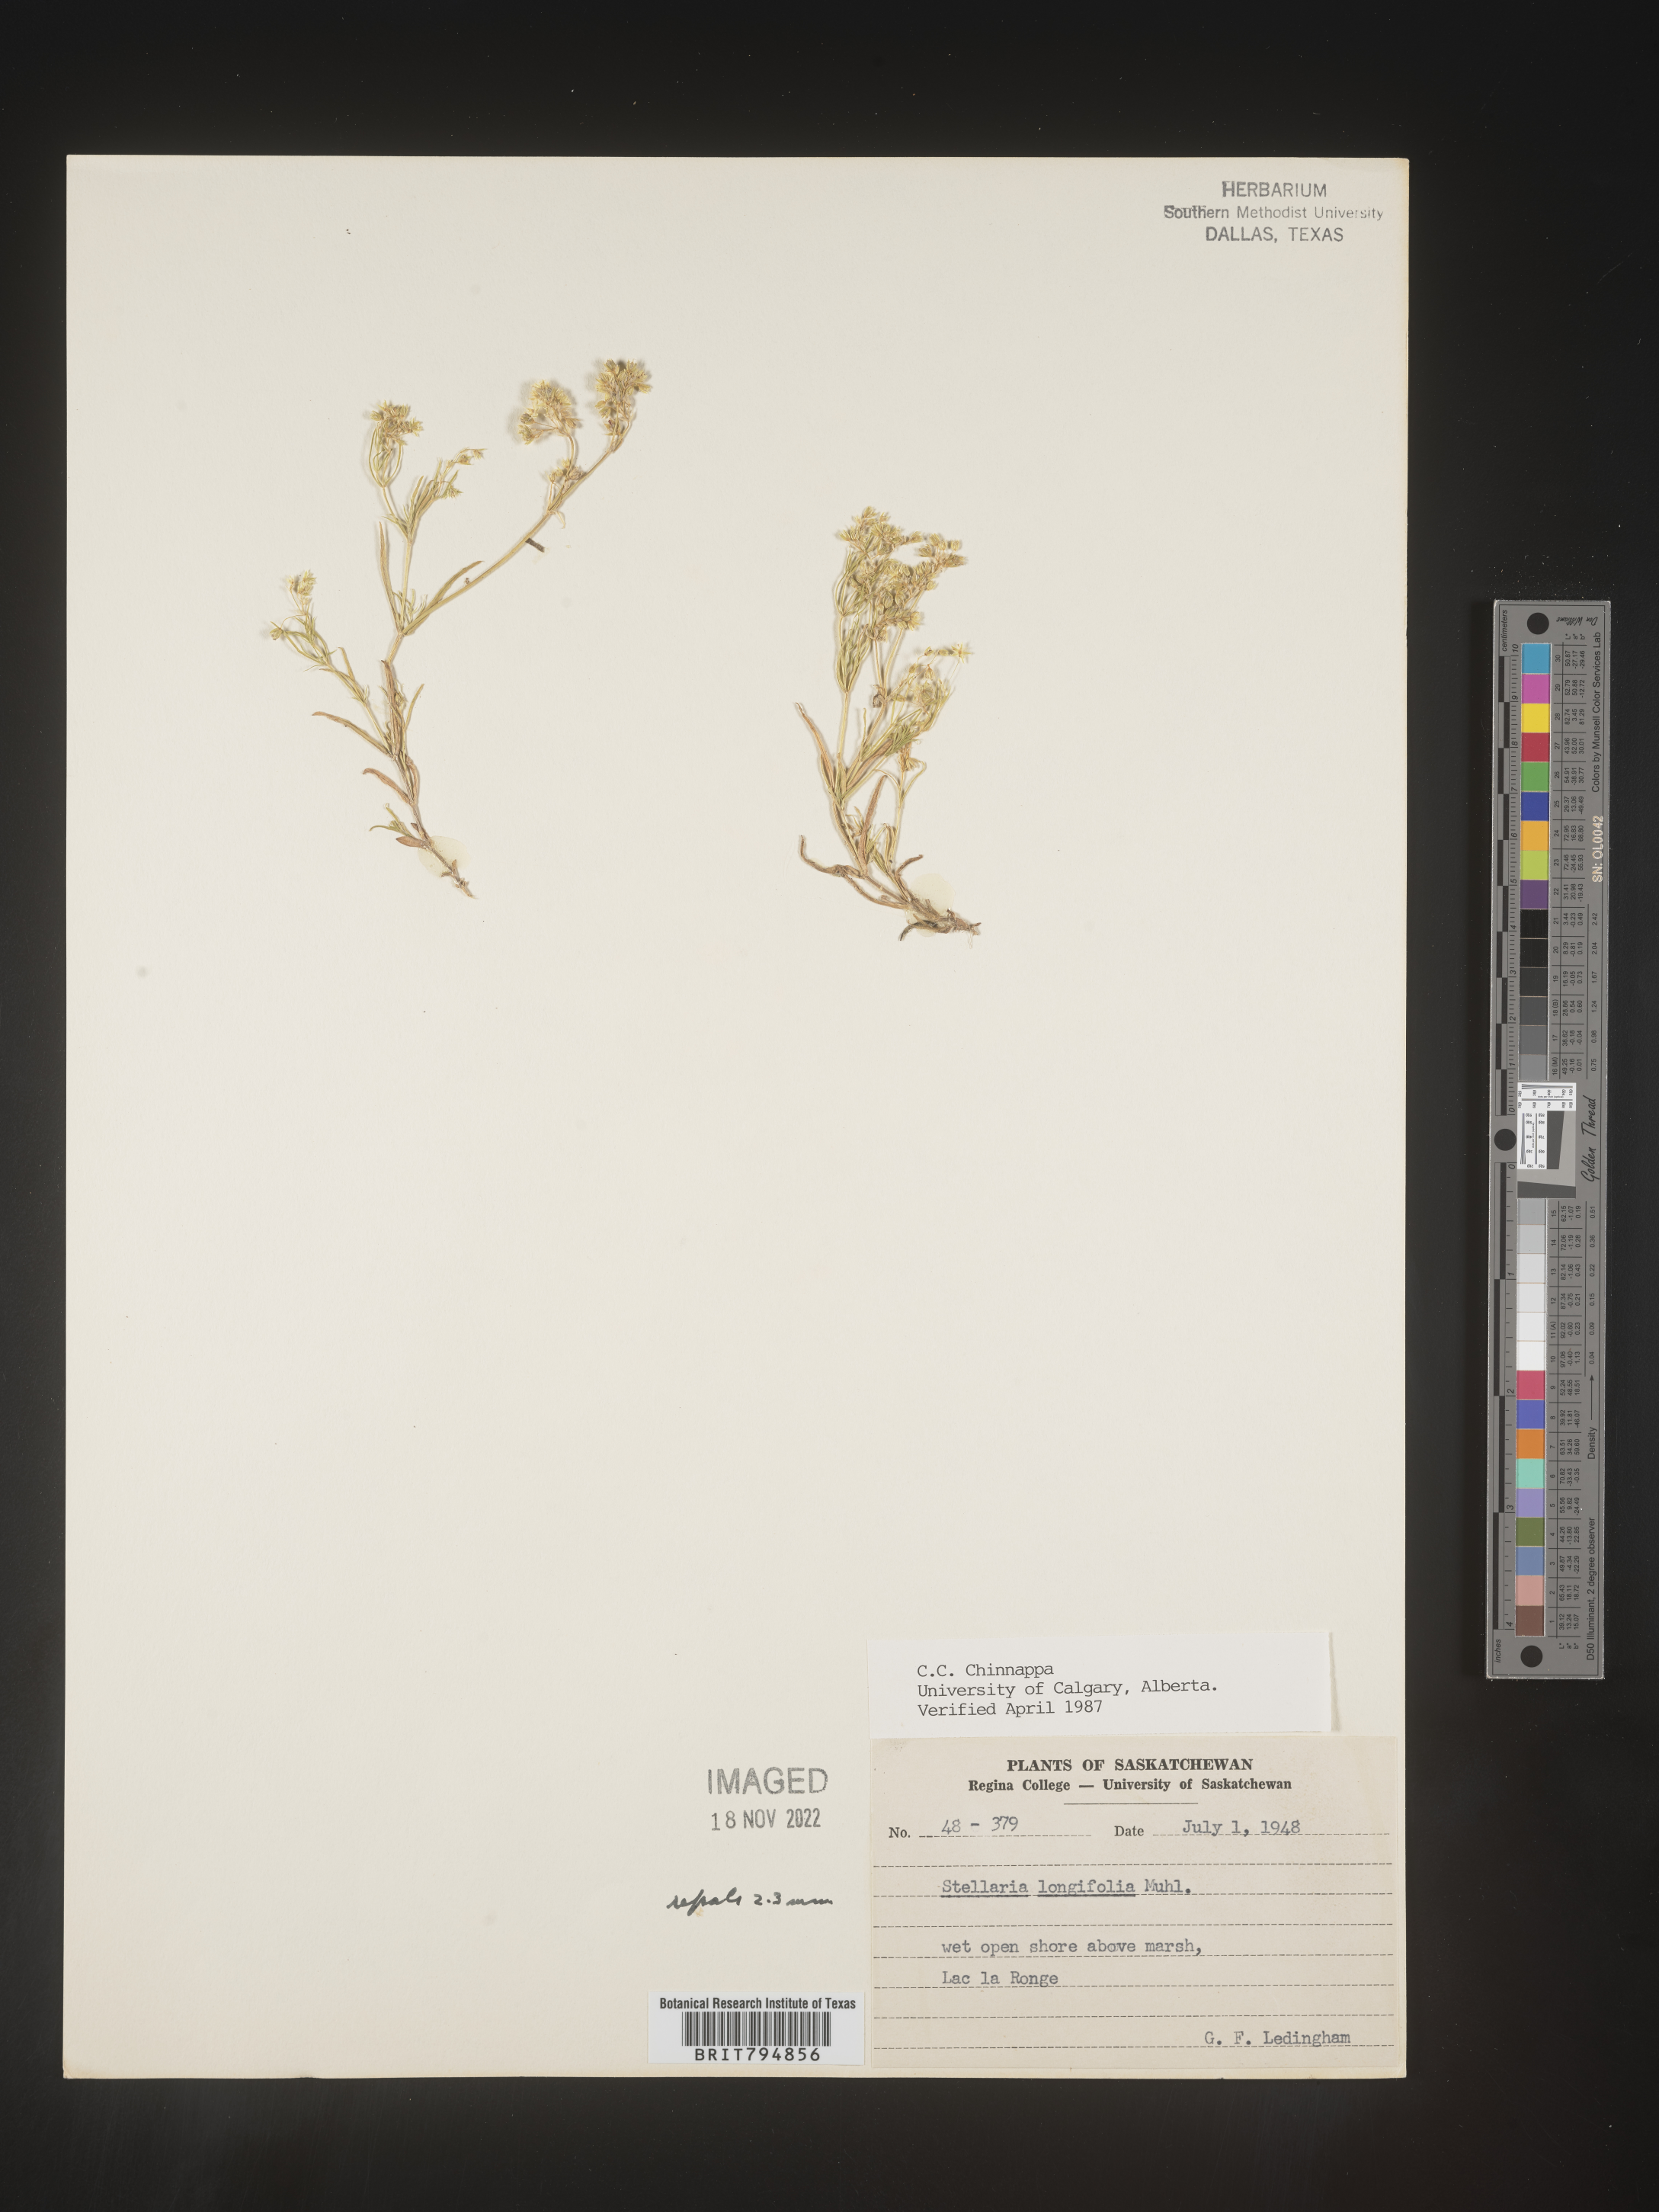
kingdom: Plantae
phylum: Tracheophyta
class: Magnoliopsida
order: Caryophyllales
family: Caryophyllaceae
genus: Stellaria
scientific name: Stellaria longifolia
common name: Long-leaved chickweed
